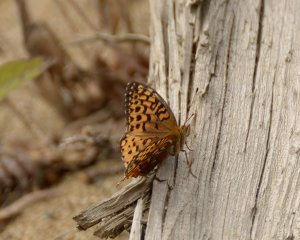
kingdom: Animalia
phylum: Arthropoda
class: Insecta
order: Lepidoptera
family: Nymphalidae
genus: Speyeria
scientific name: Speyeria atlantis
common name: Atlantis Fritillary
